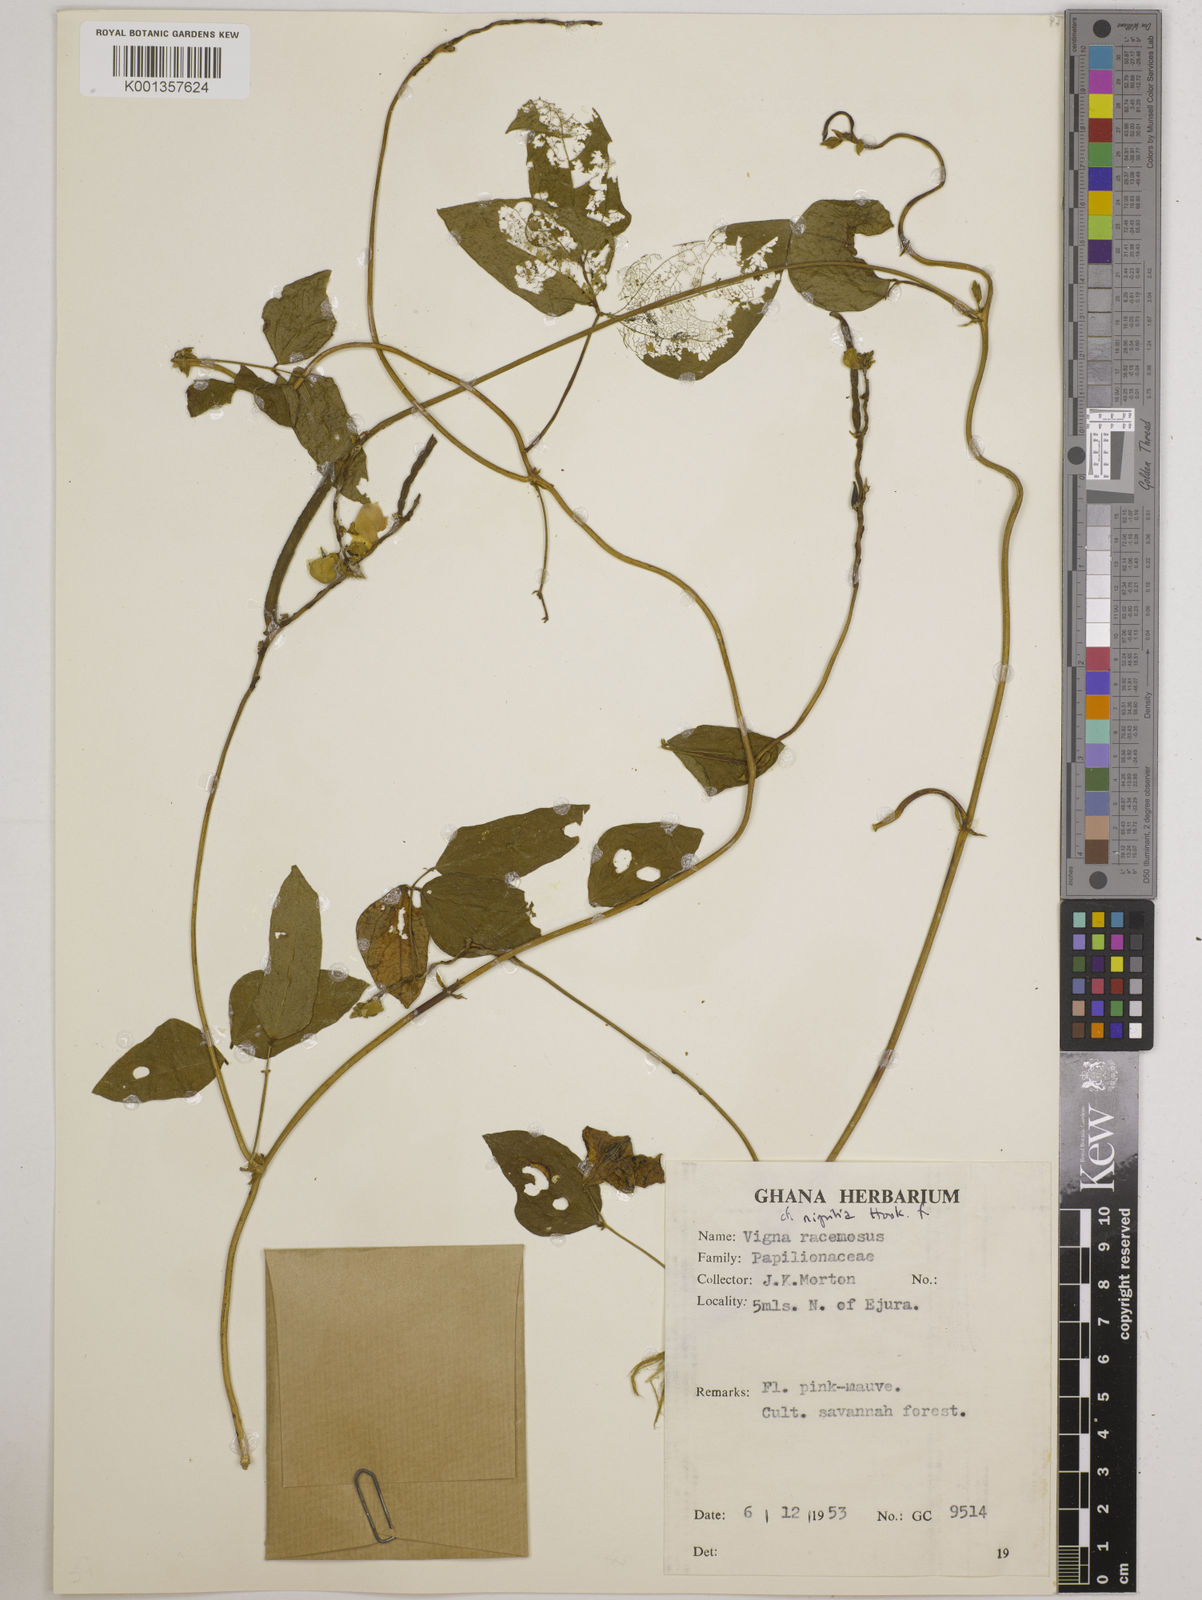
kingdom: Plantae
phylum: Tracheophyta
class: Magnoliopsida
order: Fabales
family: Fabaceae
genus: Vigna
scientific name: Vigna nigritia
